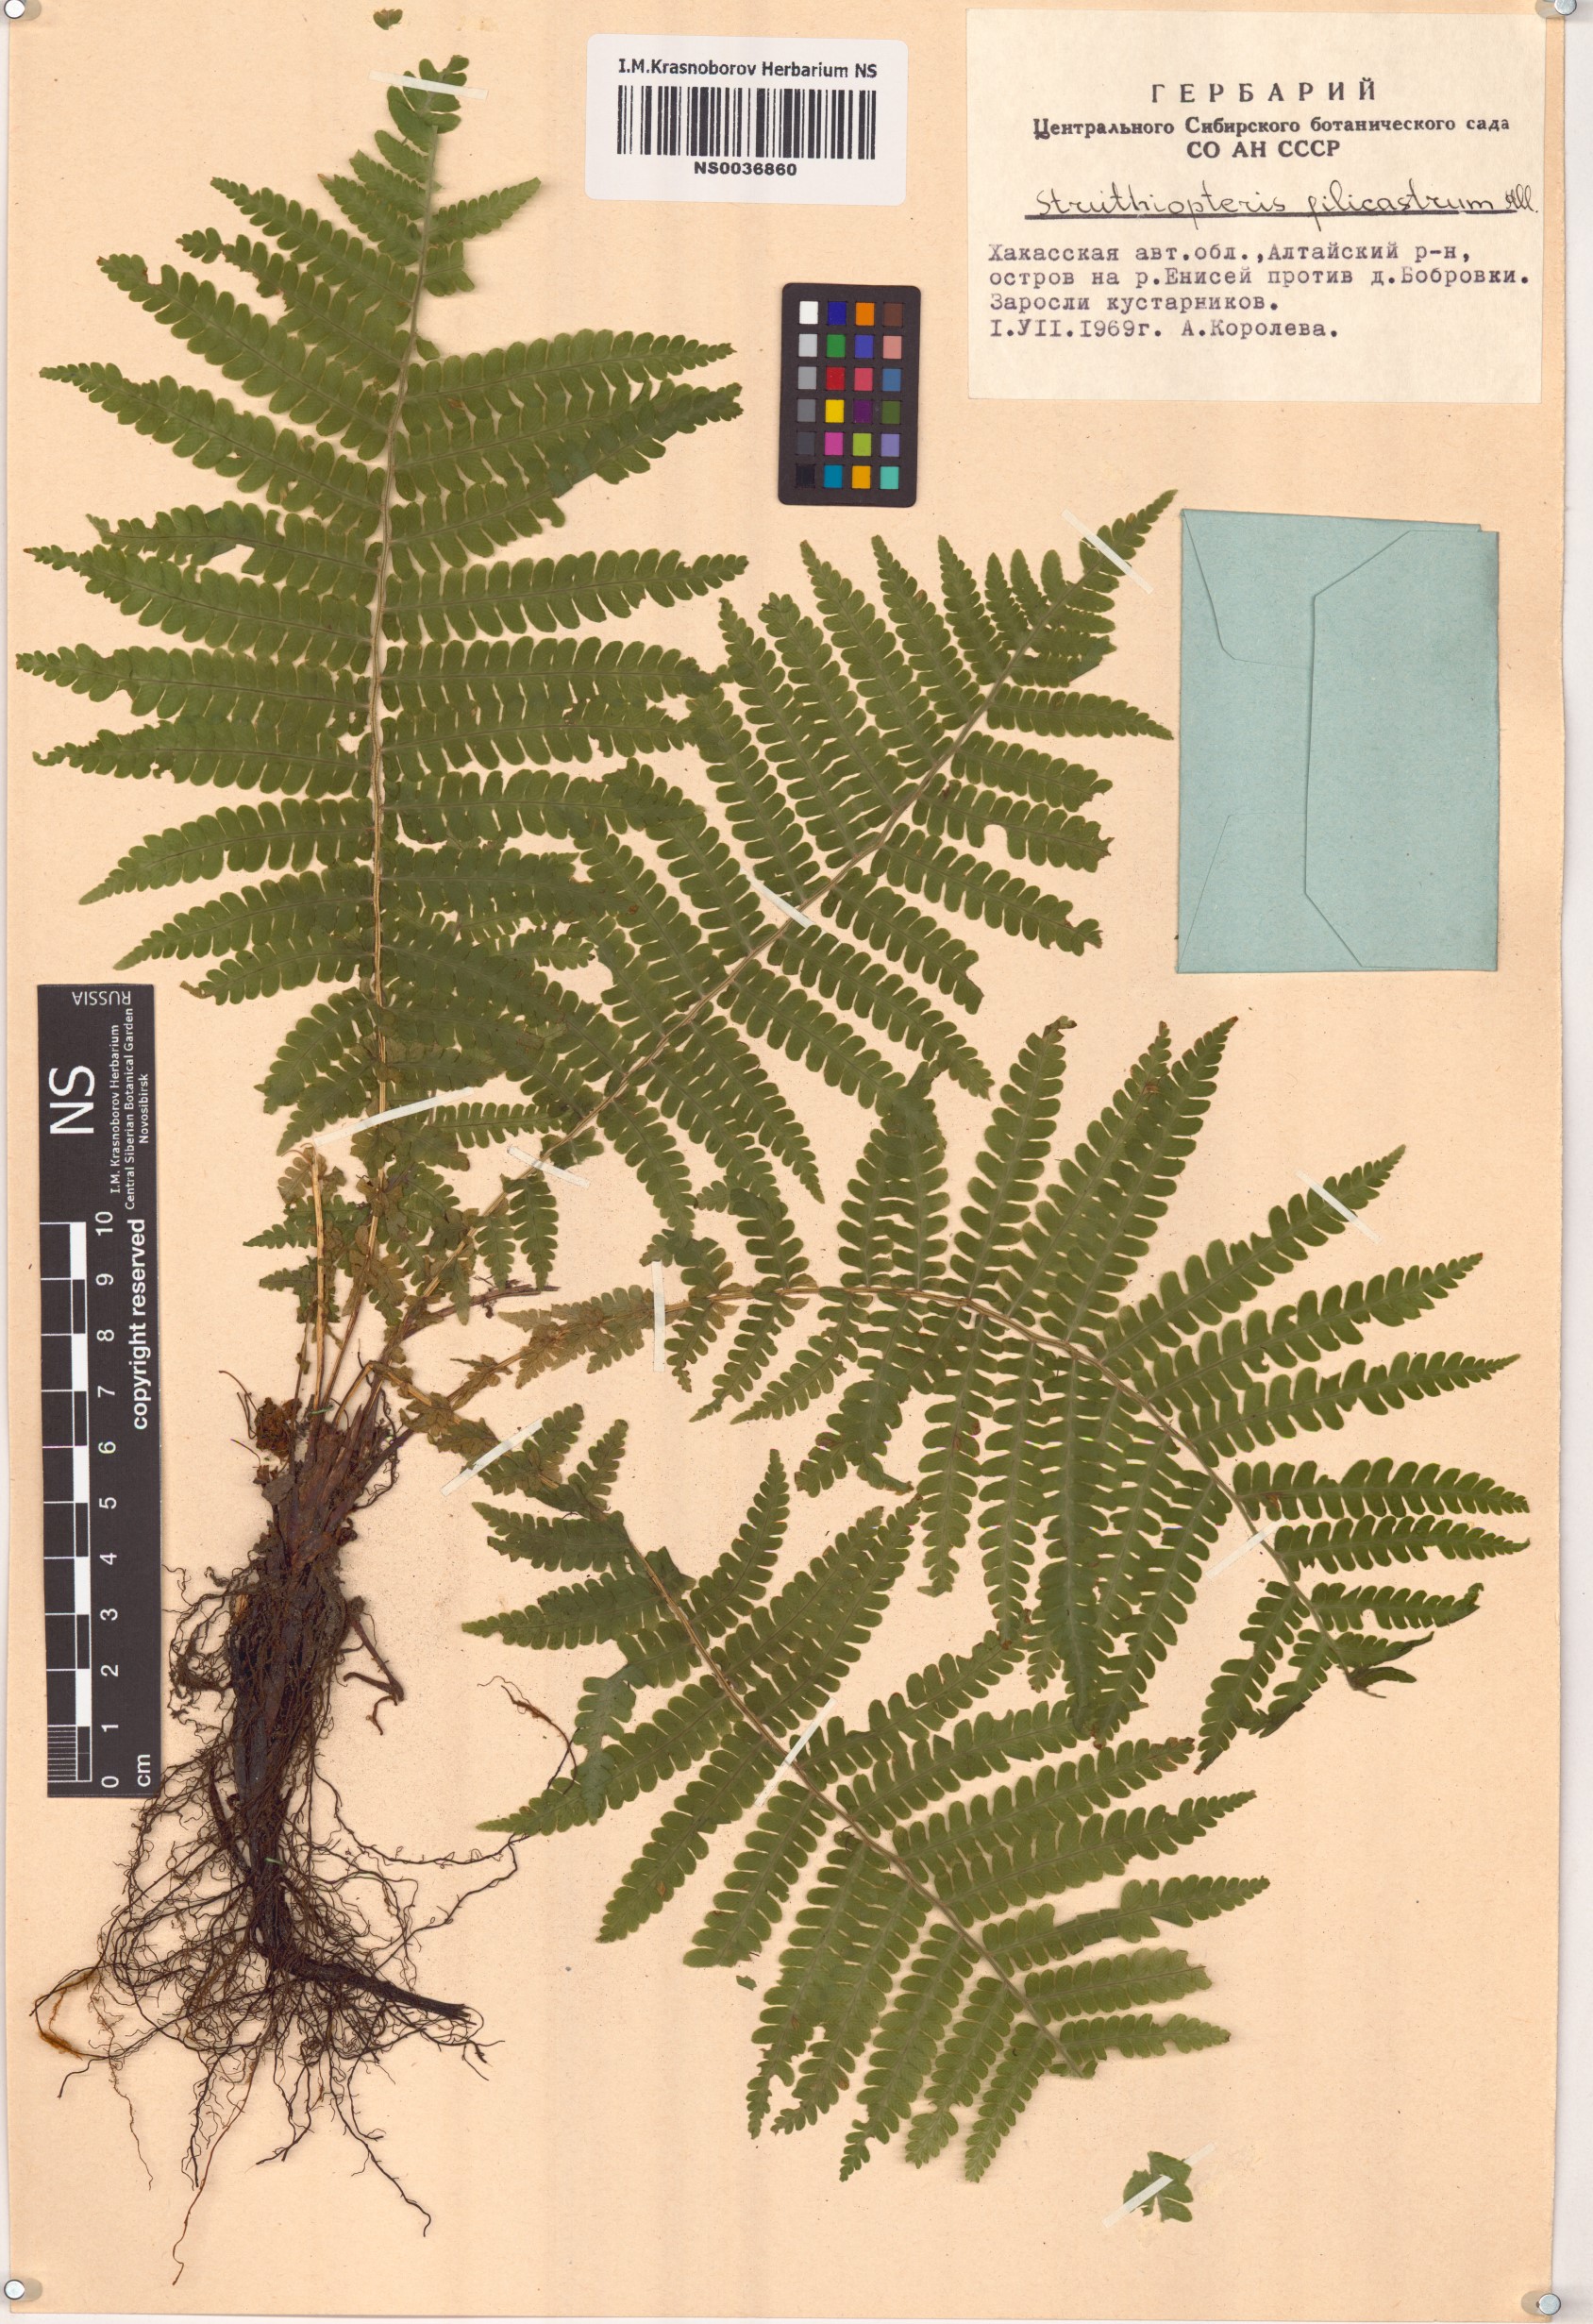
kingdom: Plantae
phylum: Tracheophyta
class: Polypodiopsida
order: Polypodiales
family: Onocleaceae
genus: Matteuccia
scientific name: Matteuccia struthiopteris
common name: Ostrich fern
